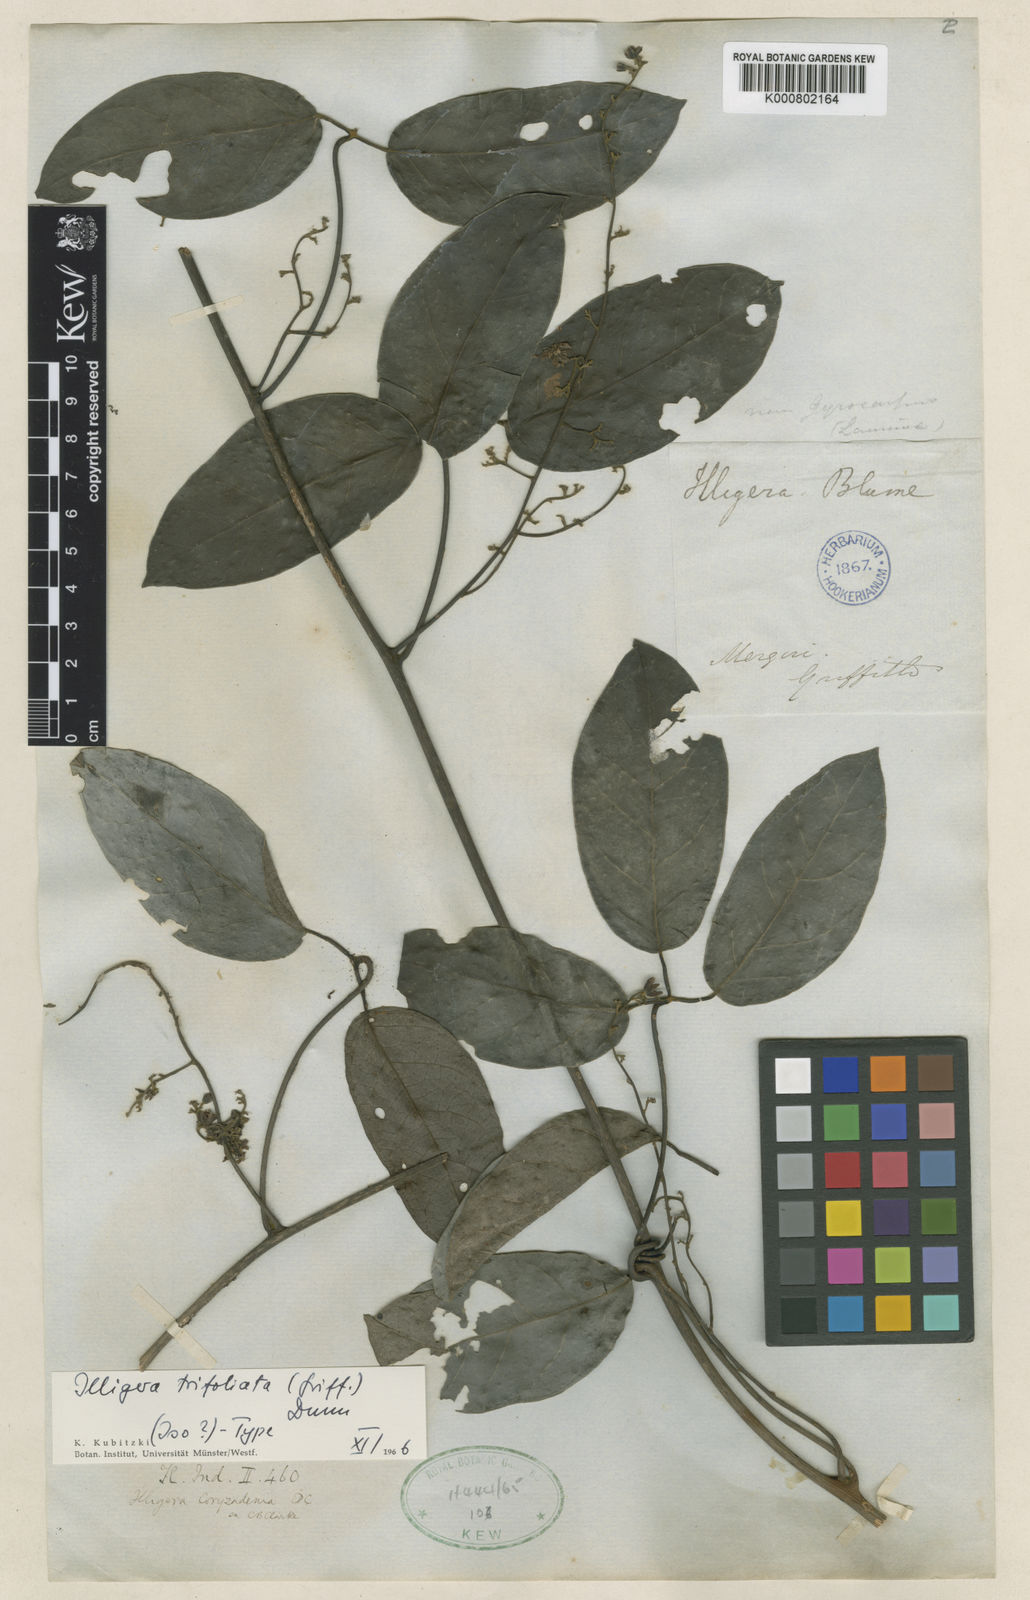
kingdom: Plantae
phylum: Tracheophyta
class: Magnoliopsida
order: Laurales
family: Hernandiaceae
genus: Illigera
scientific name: Illigera trifoliata
